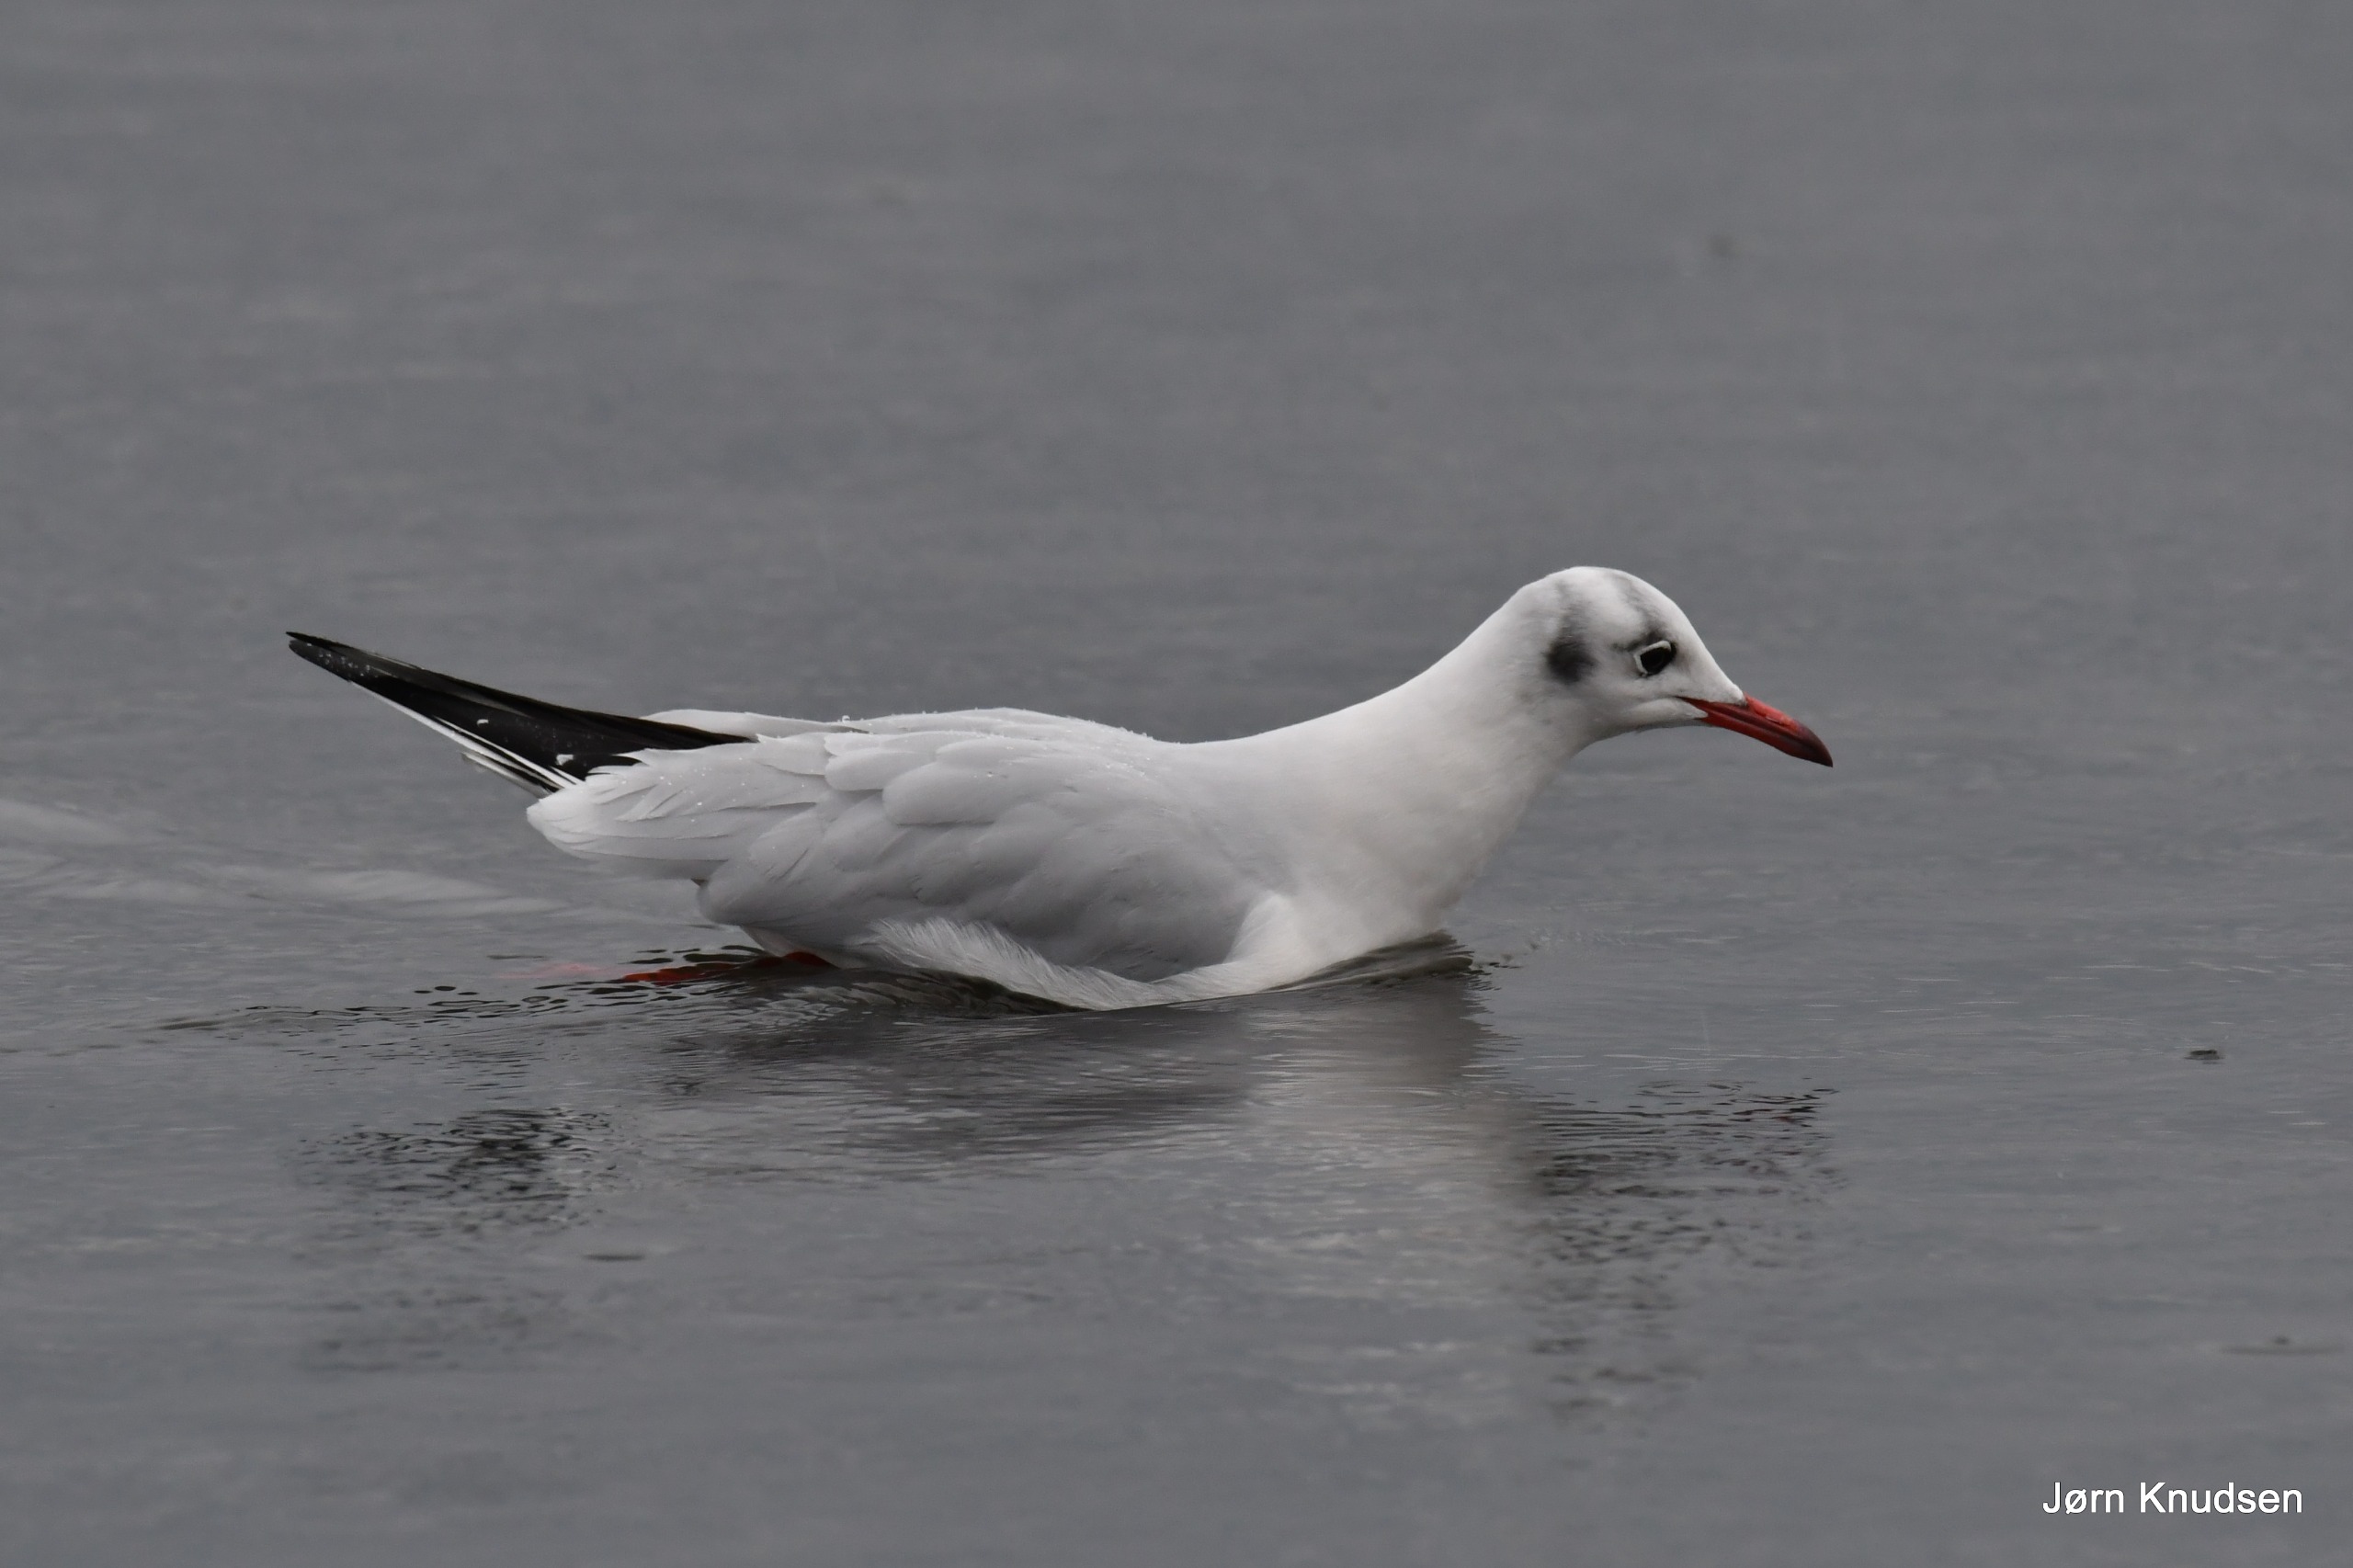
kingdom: Animalia
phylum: Chordata
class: Aves
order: Charadriiformes
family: Laridae
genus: Chroicocephalus
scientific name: Chroicocephalus ridibundus
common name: Hættemåge
